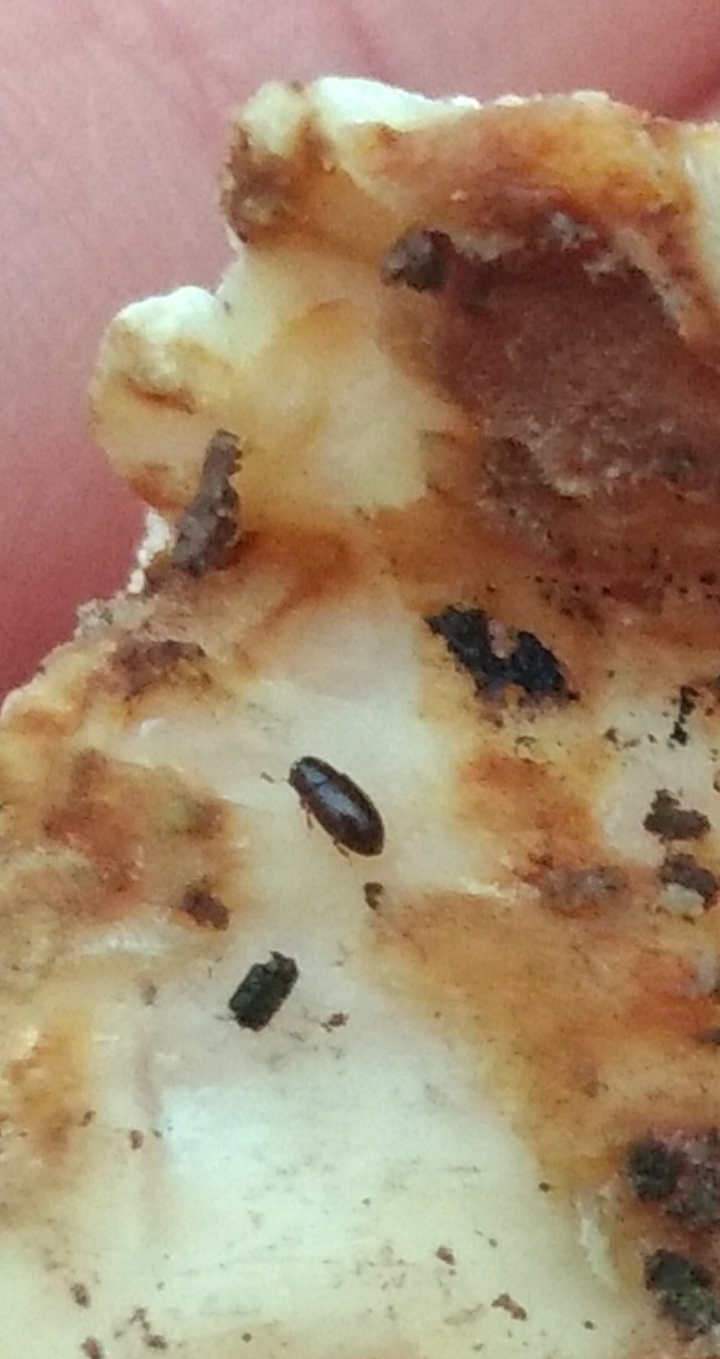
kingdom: Fungi
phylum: Basidiomycota
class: Agaricomycetes
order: Polyporales
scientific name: Polyporales
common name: poresvampordenen
